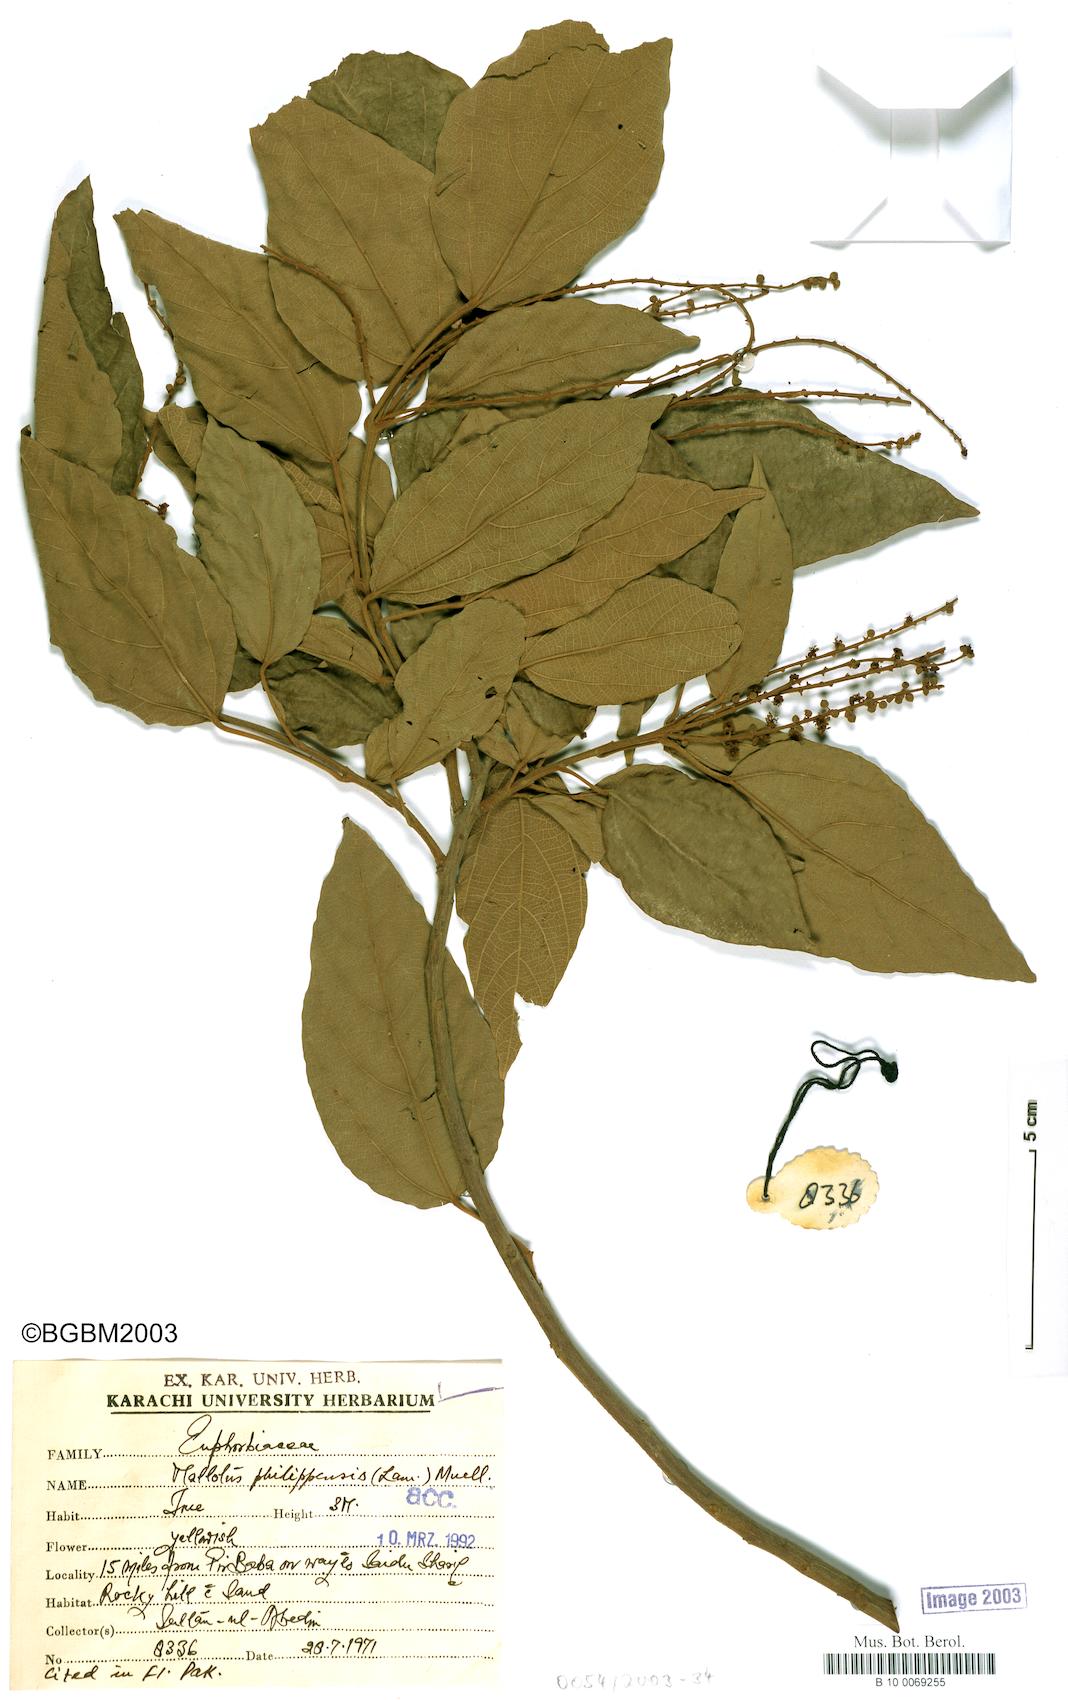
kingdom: Plantae
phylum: Tracheophyta
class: Magnoliopsida
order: Malpighiales
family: Euphorbiaceae
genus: Mallotus
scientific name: Mallotus philippensis
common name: Kamala tree
